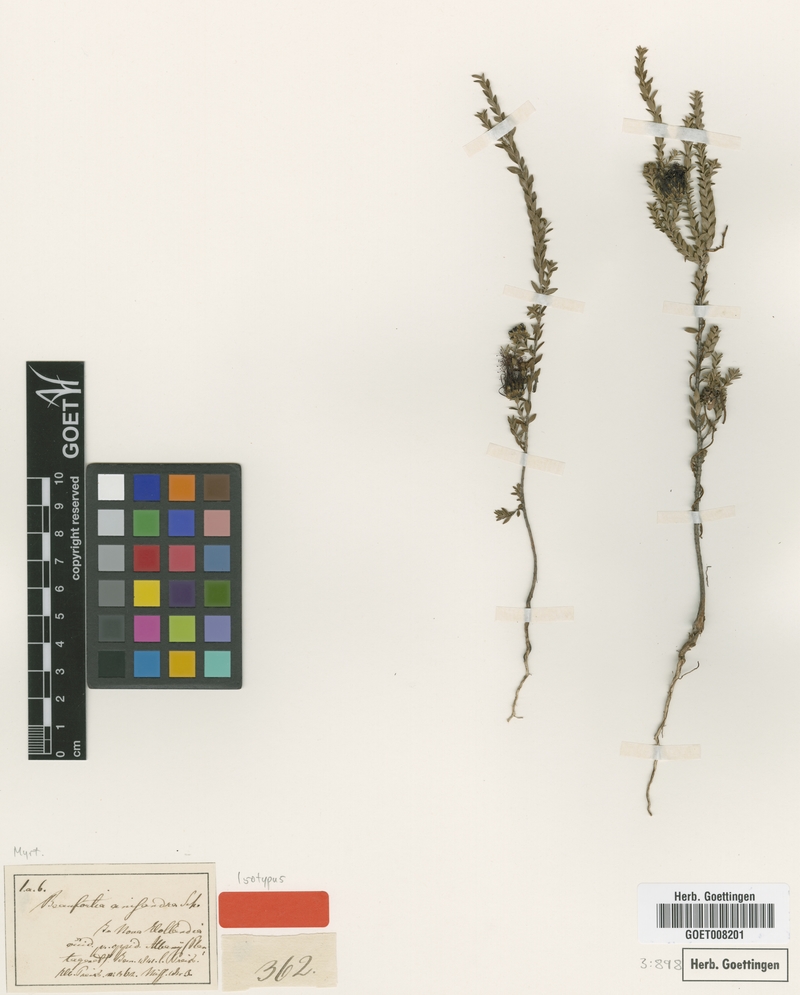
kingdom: Plantae
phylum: Tracheophyta
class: Magnoliopsida
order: Myrtales
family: Myrtaceae
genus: Melaleuca
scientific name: Melaleuca anisandra
